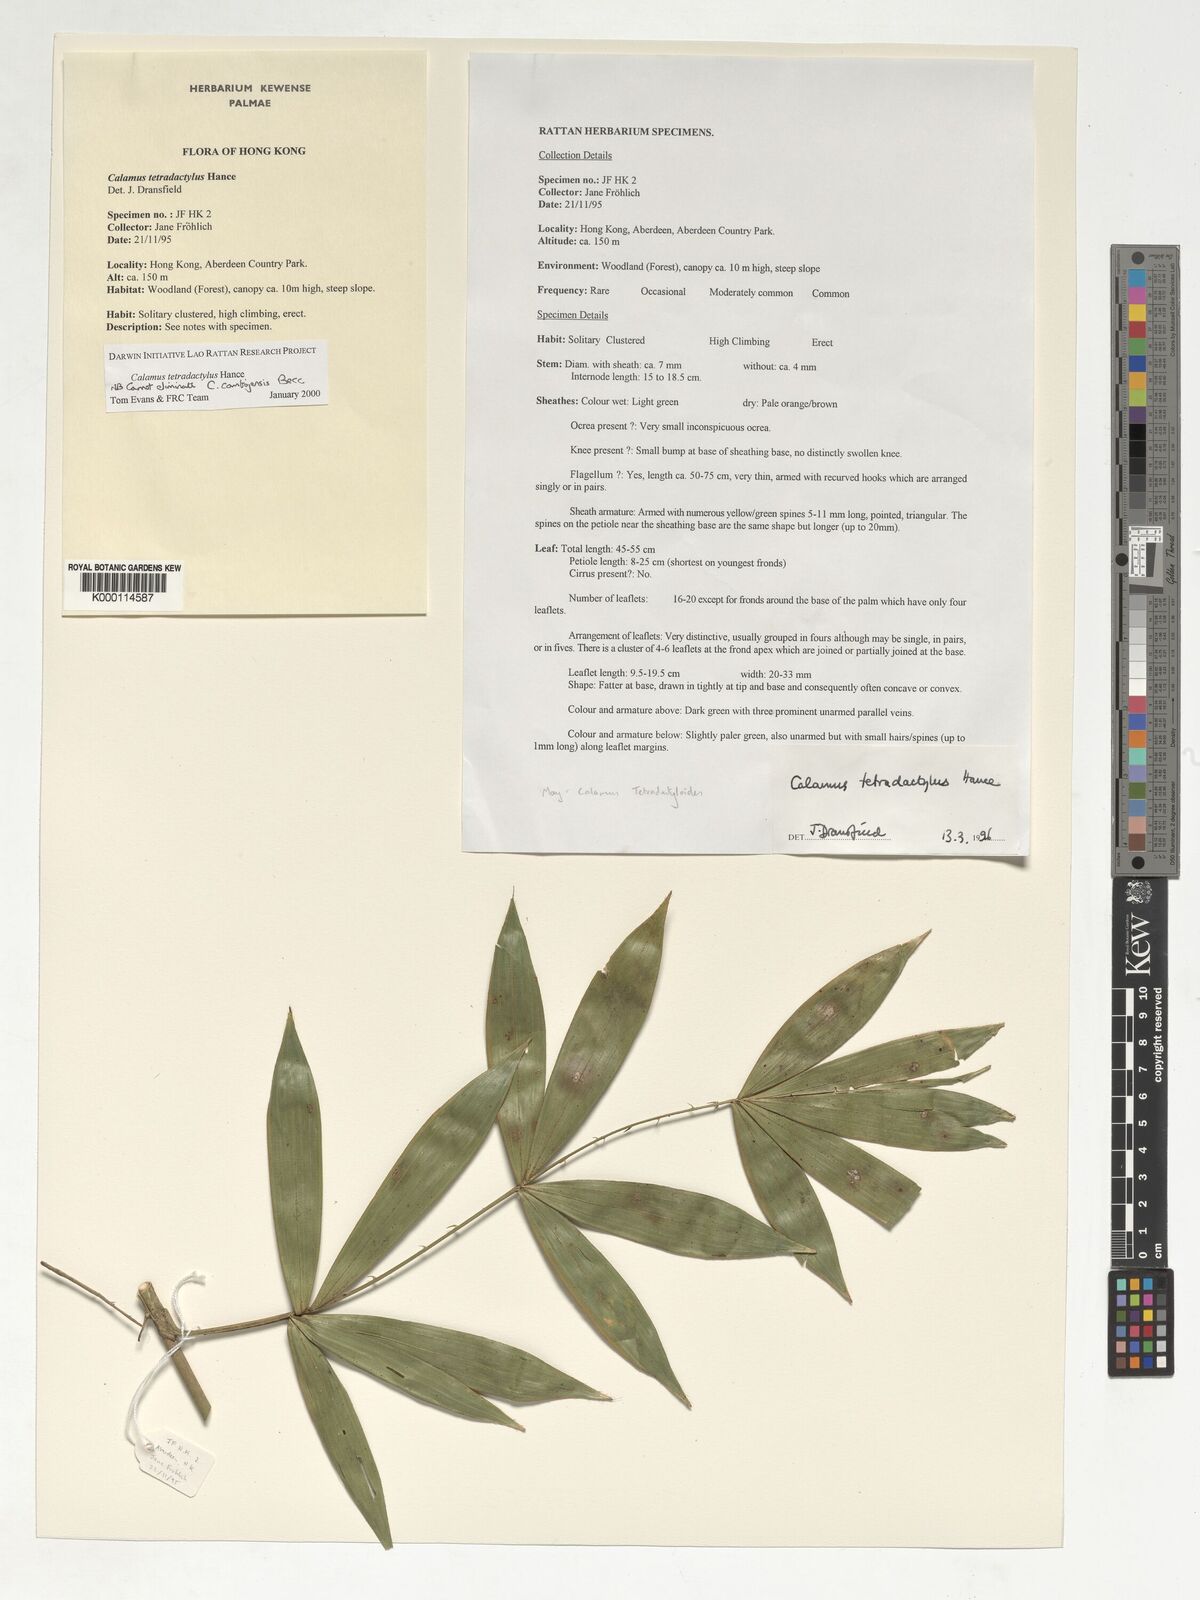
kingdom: Plantae
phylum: Tracheophyta
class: Liliopsida
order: Arecales
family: Arecaceae
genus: Calamus
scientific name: Calamus tetradactylus
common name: White rattan
